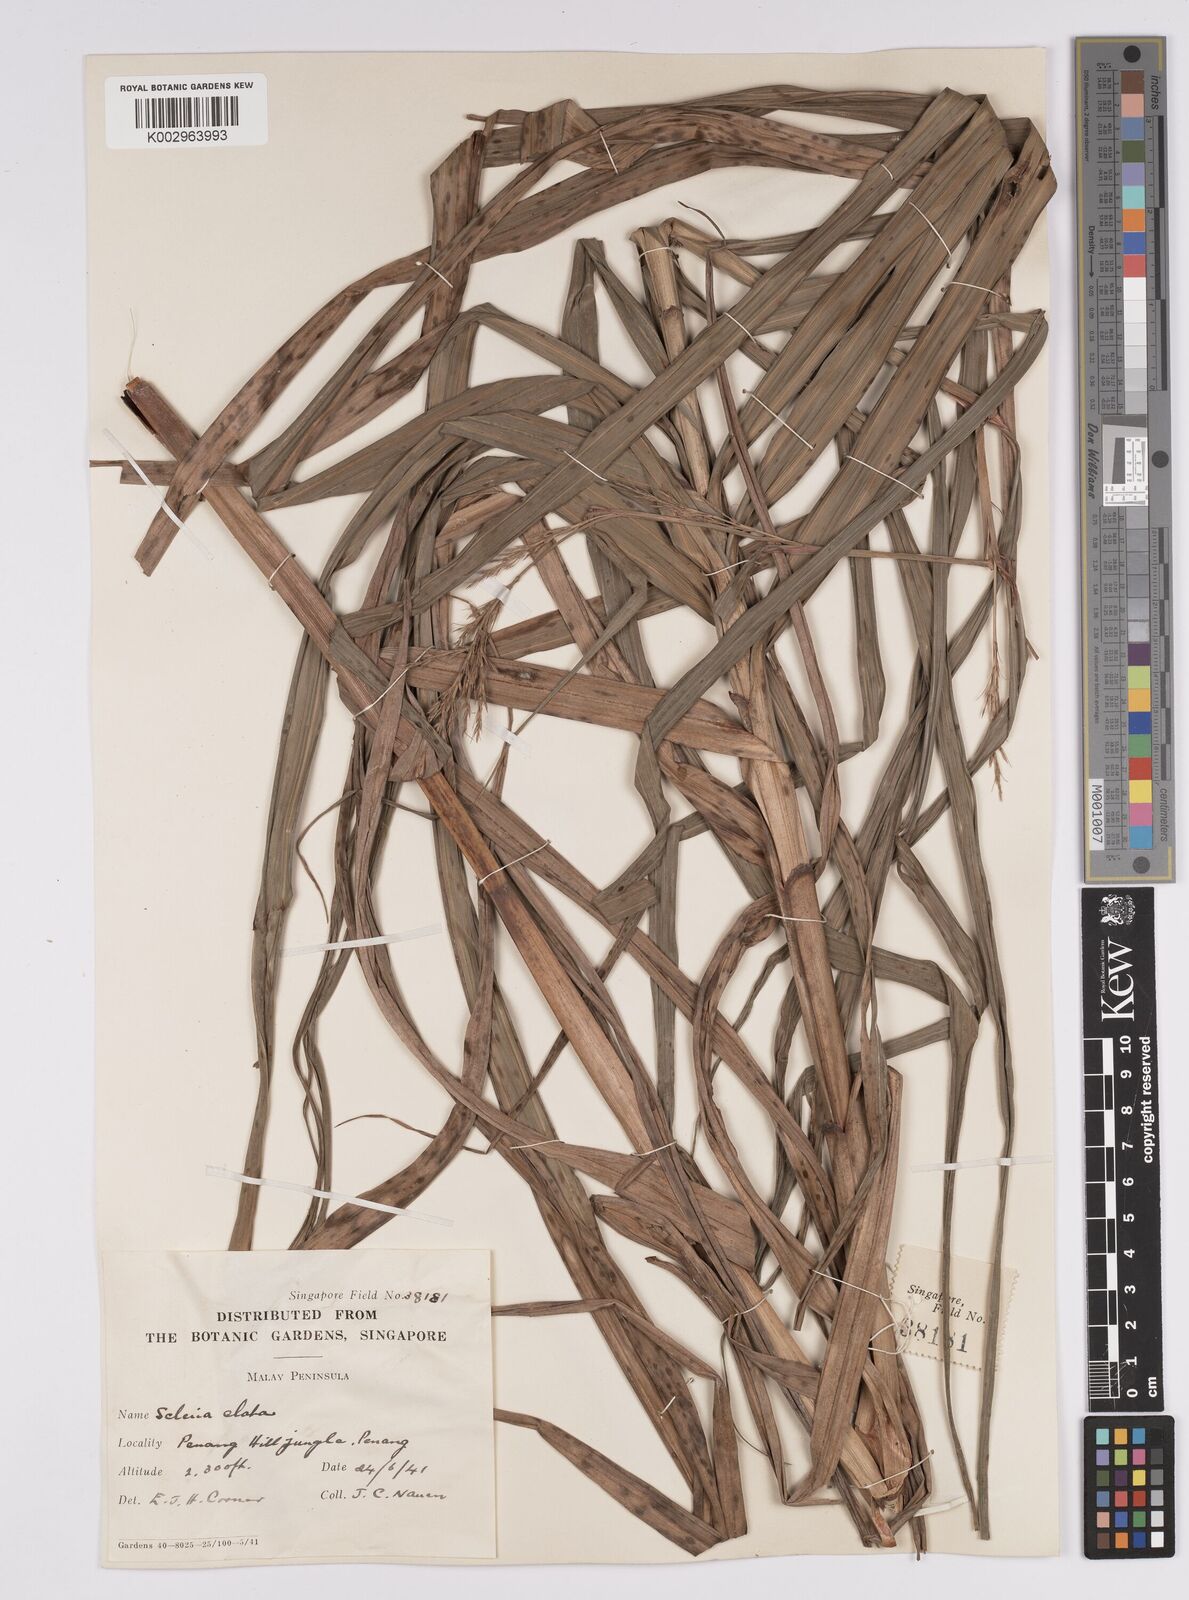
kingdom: Plantae
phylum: Tracheophyta
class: Liliopsida
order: Poales
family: Cyperaceae
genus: Scleria
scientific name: Scleria terrestris
